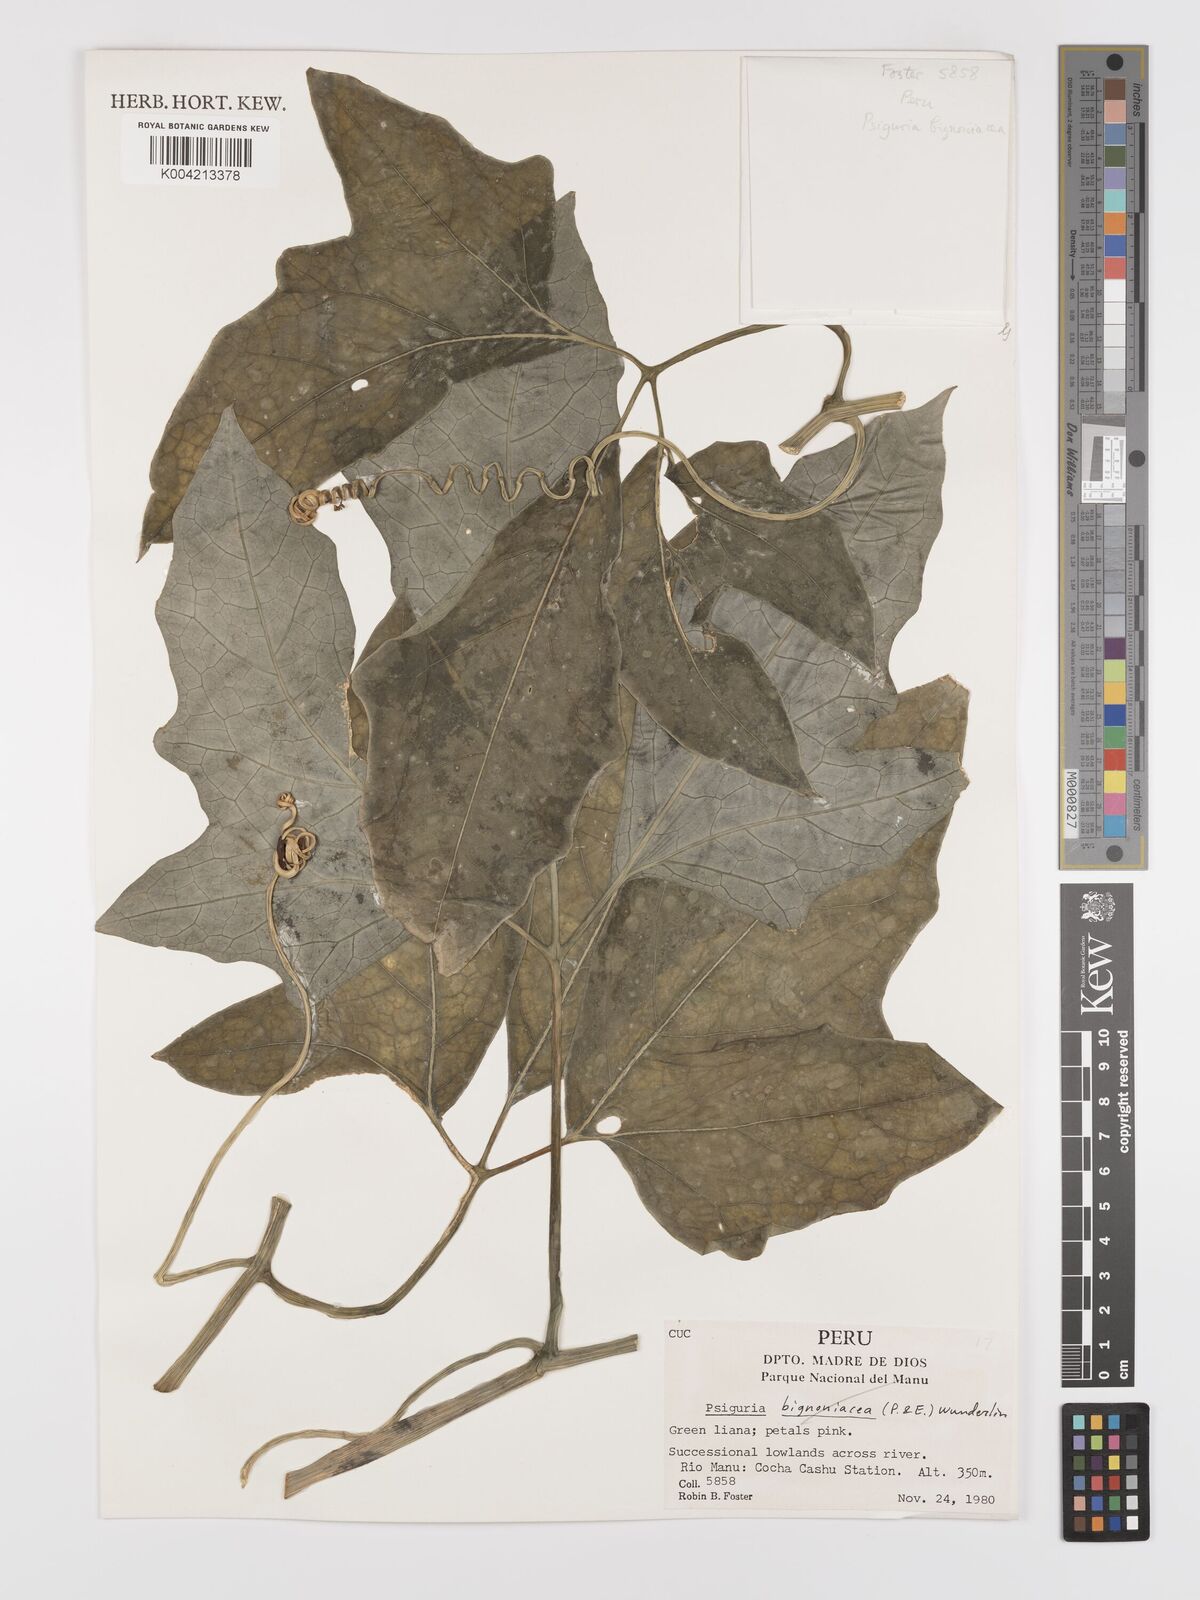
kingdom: Plantae
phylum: Tracheophyta
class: Magnoliopsida
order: Cucurbitales
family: Cucurbitaceae
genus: Psiguria
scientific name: Psiguria ternata
